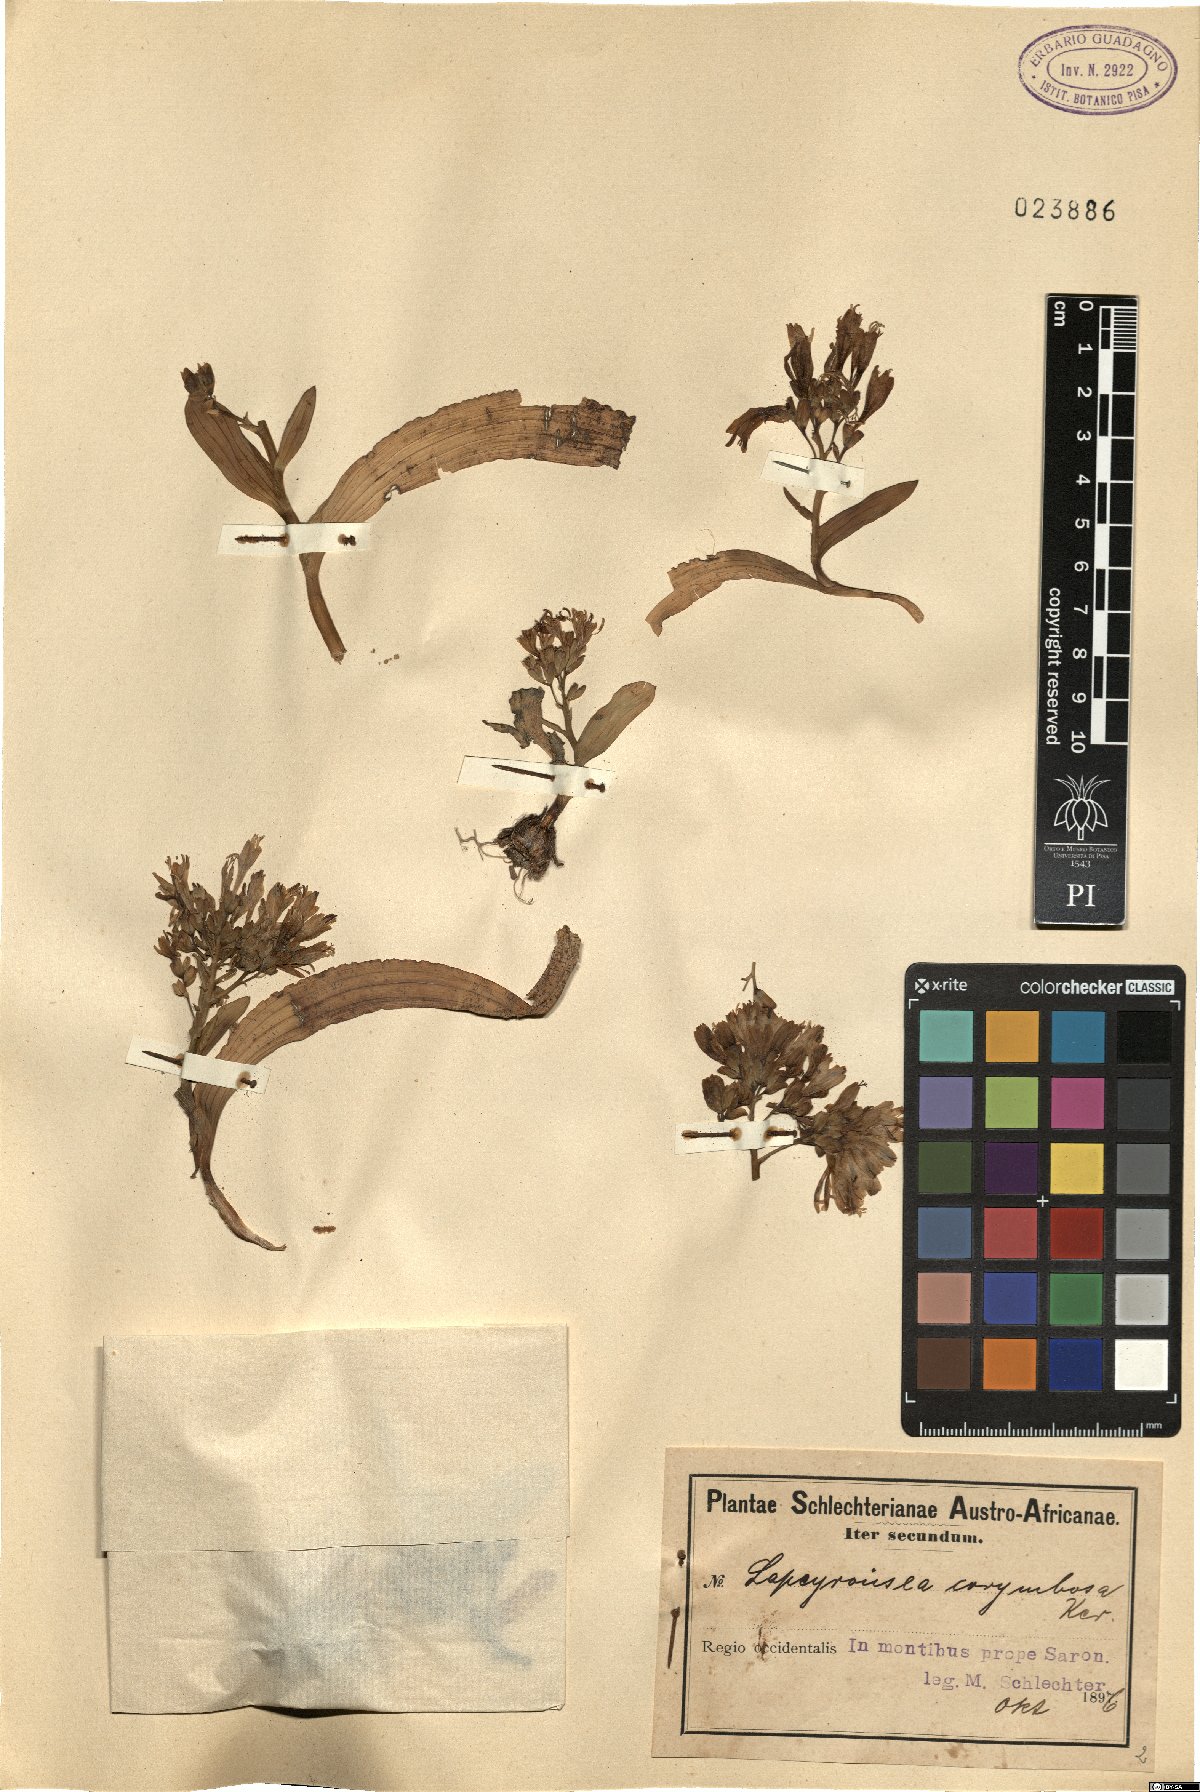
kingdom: Plantae
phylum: Tracheophyta
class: Liliopsida
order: Asparagales
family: Iridaceae
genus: Codonorhiza
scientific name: Codonorhiza corymbosa
